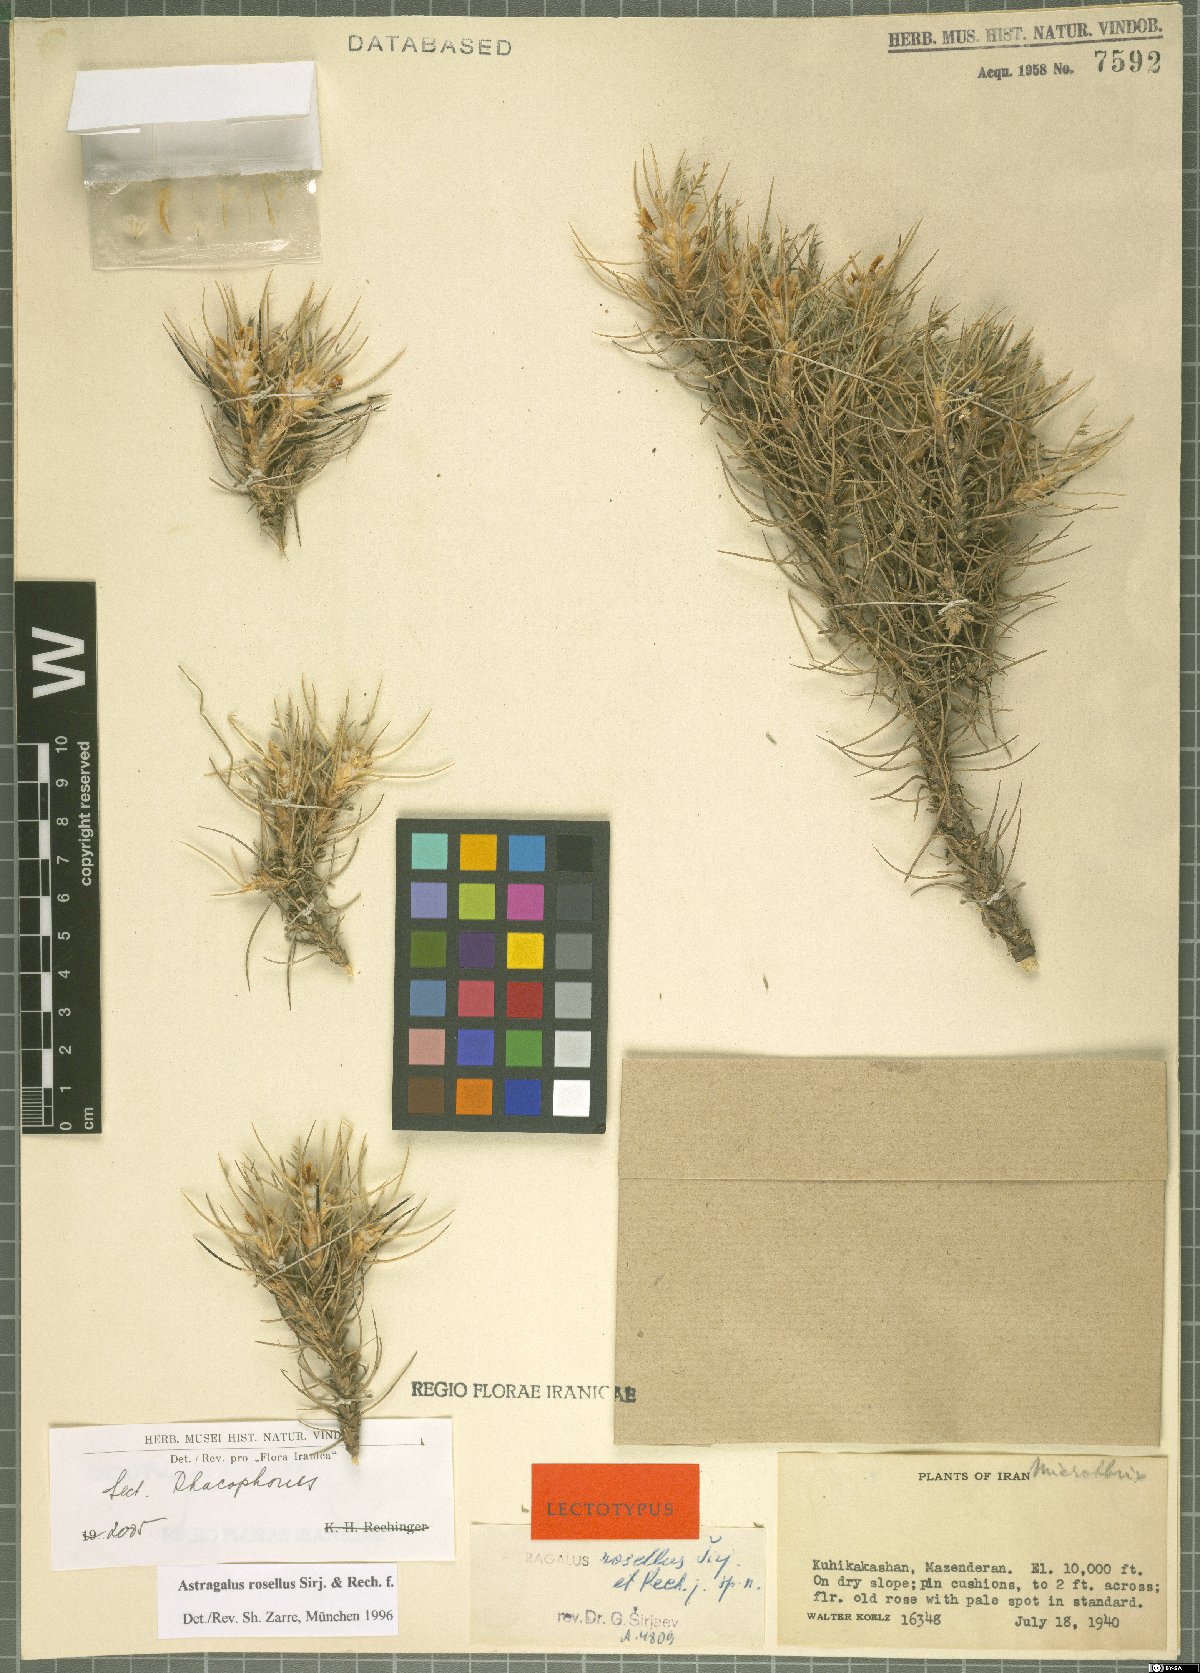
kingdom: Plantae
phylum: Tracheophyta
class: Magnoliopsida
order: Fabales
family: Fabaceae
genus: Astragalus
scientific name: Astragalus rosellus
